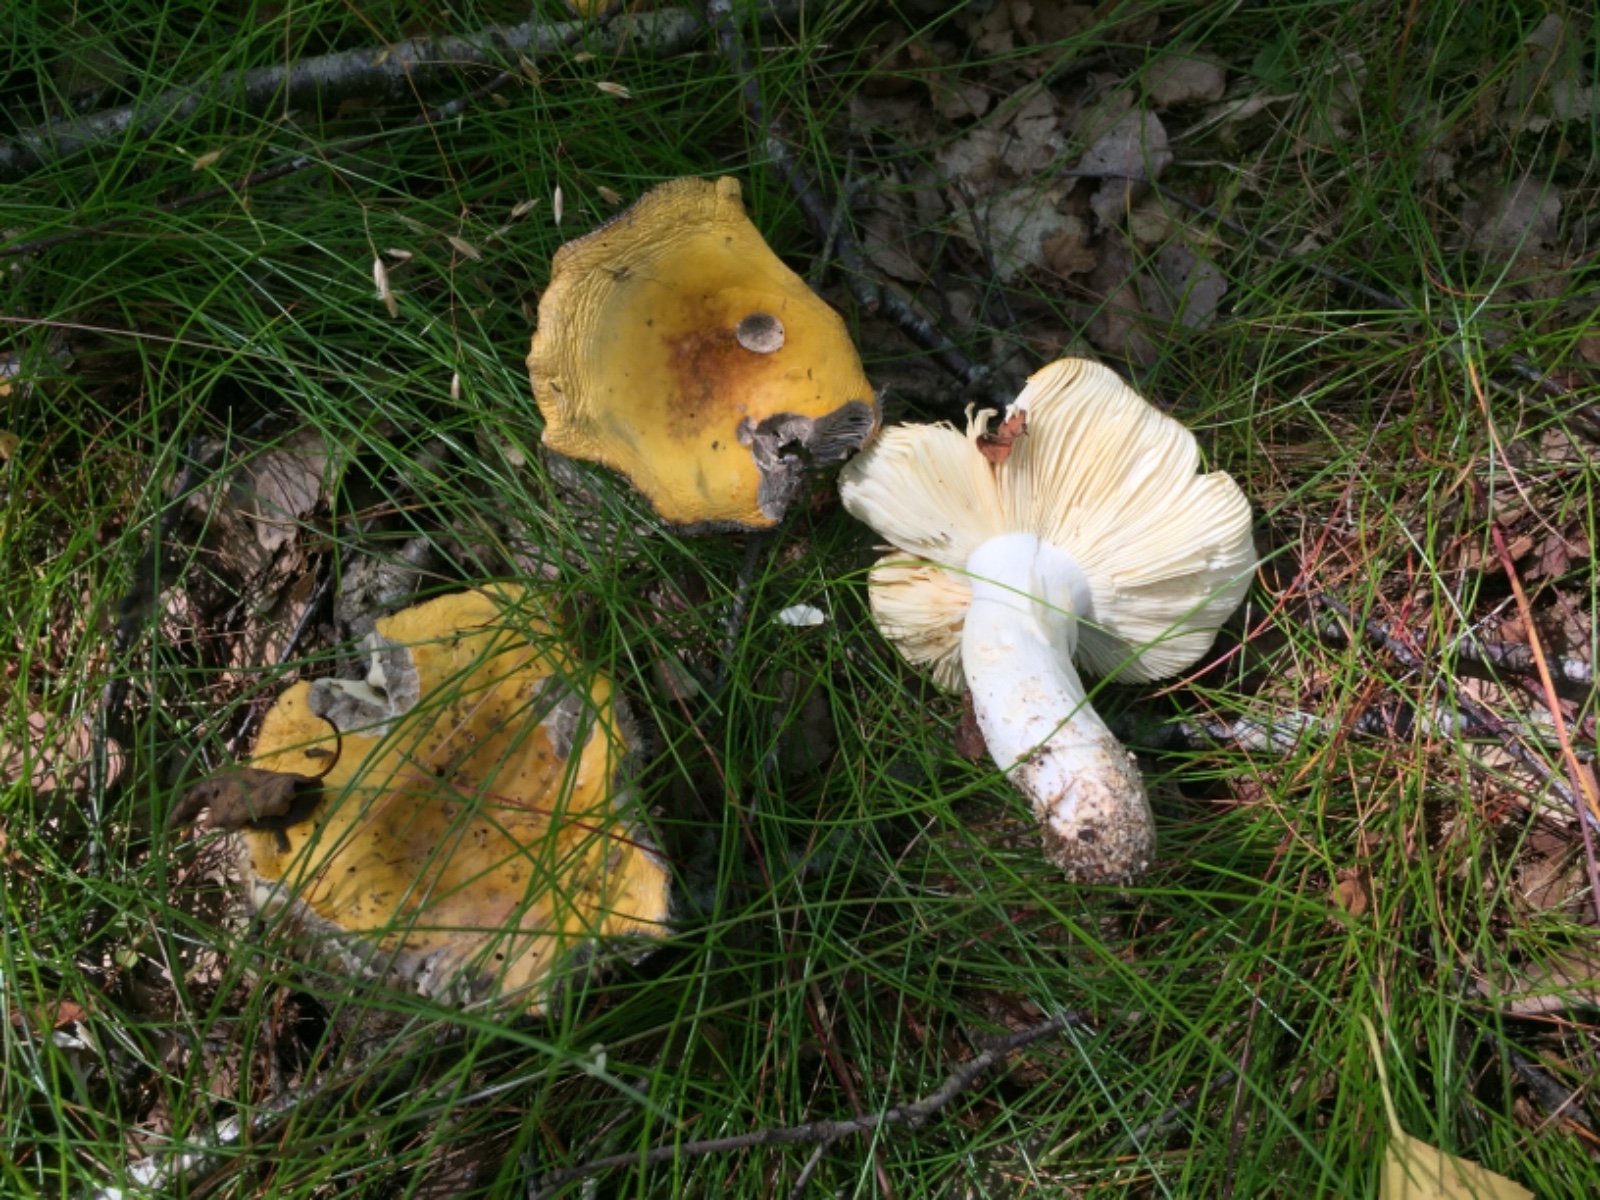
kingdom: Fungi
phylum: Basidiomycota
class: Agaricomycetes
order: Russulales
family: Russulaceae
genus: Russula
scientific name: Russula claroflava
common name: birke-skørhat
